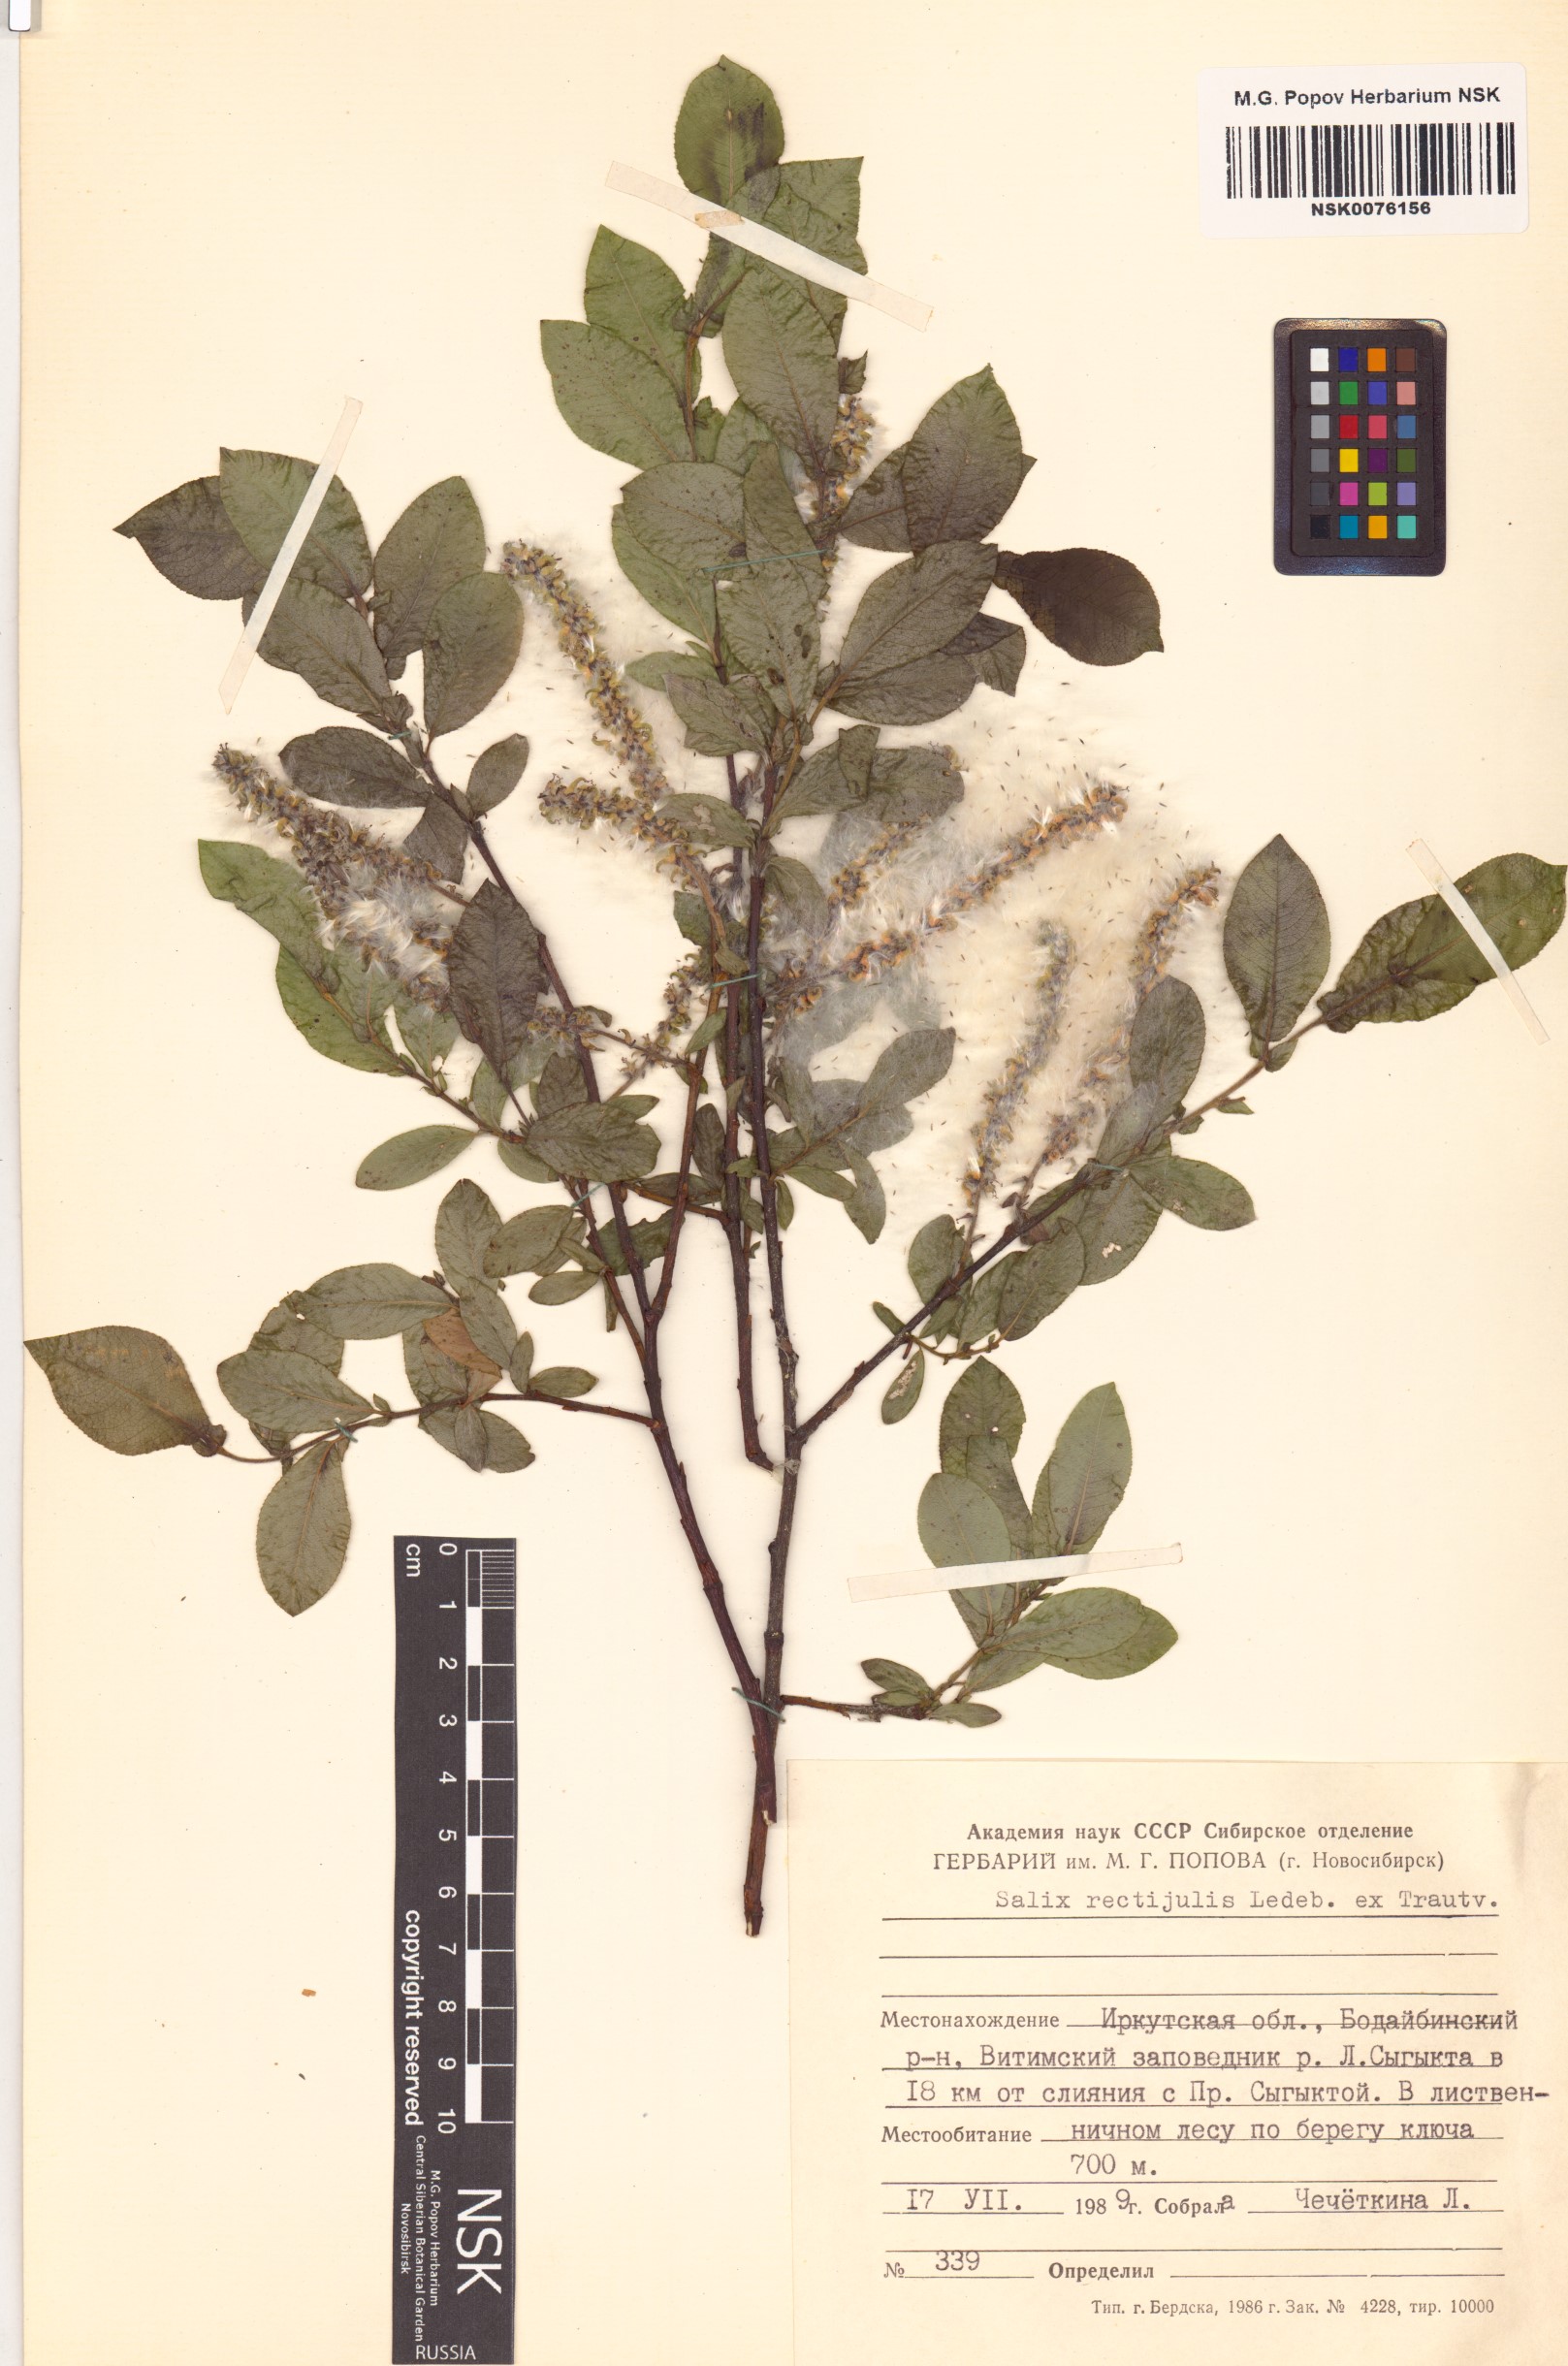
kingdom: Plantae
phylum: Tracheophyta
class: Magnoliopsida
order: Malpighiales
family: Salicaceae
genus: Salix
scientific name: Salix rectijulis
